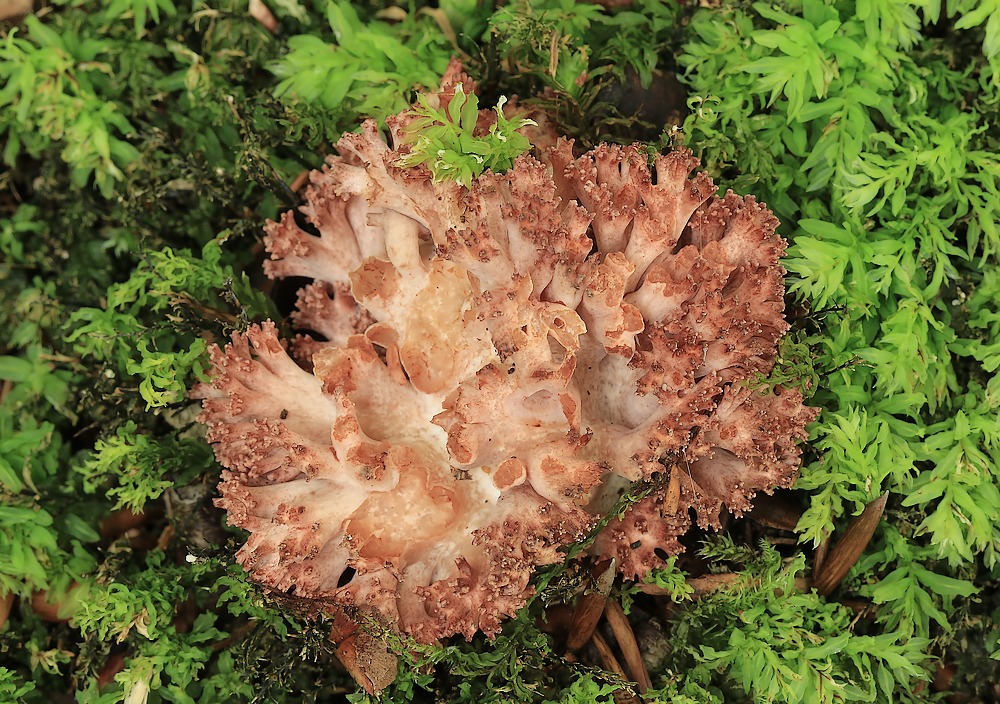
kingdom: Fungi
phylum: Basidiomycota
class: Agaricomycetes
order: Gomphales
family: Gomphaceae
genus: Ramaria
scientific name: Ramaria botrytis
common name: drue-koralsvamp
